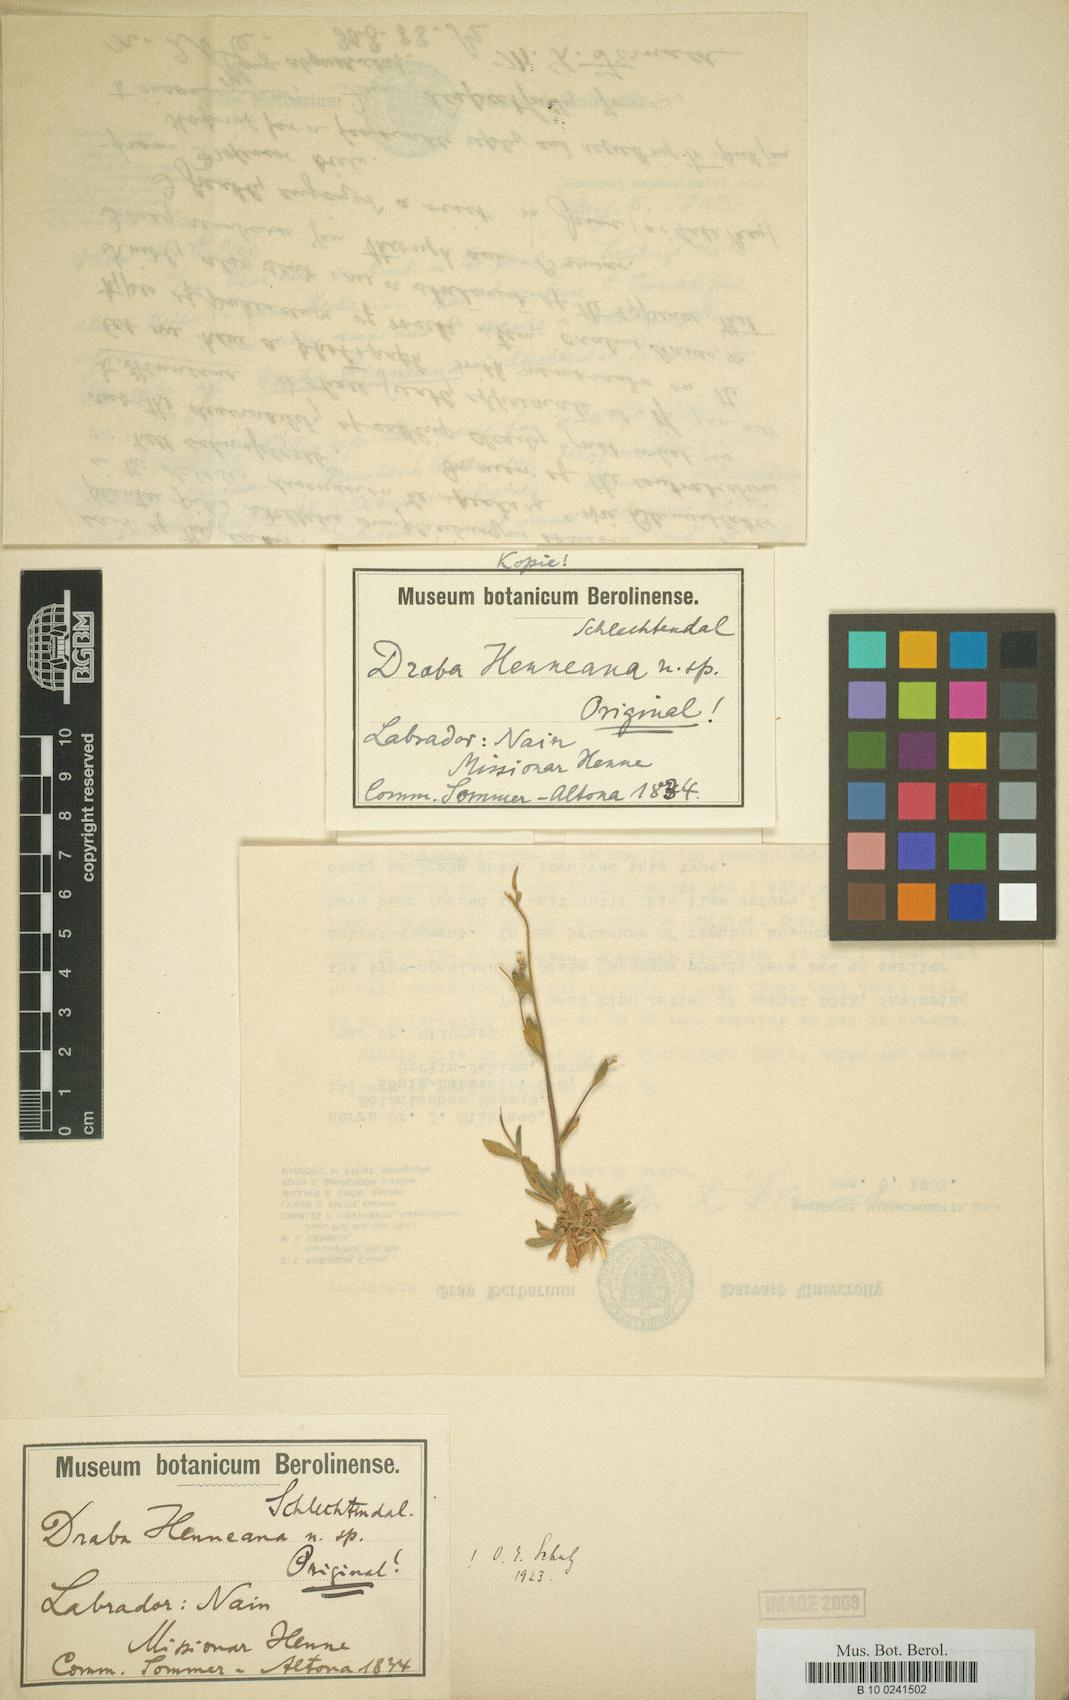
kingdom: Plantae
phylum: Tracheophyta
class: Magnoliopsida
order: Brassicales
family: Brassicaceae
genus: Draba
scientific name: Draba glabella
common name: Glaucous draba
